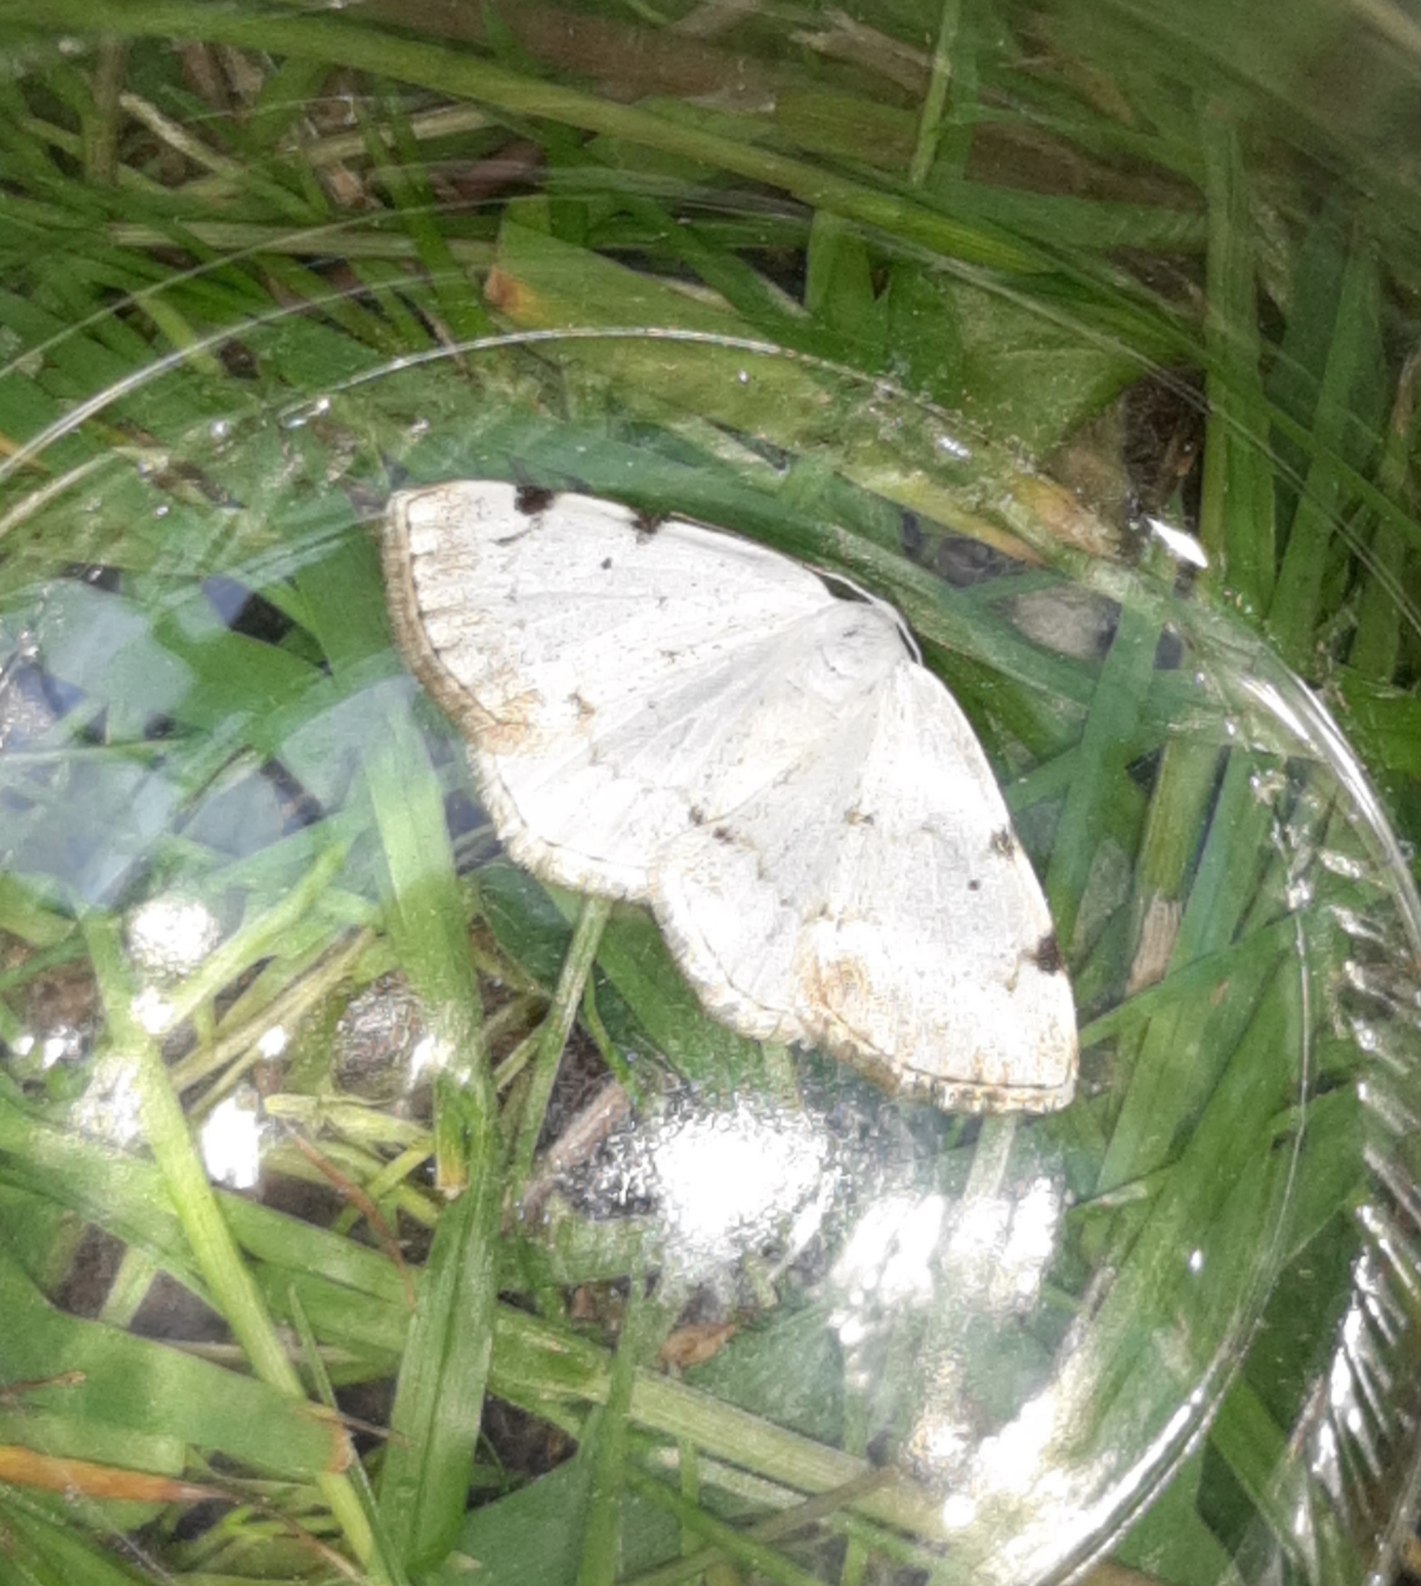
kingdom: Animalia
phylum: Arthropoda
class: Insecta
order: Lepidoptera
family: Geometridae
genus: Lomographa
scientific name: Lomographa bimaculata
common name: Toplettet atlaskmåler
